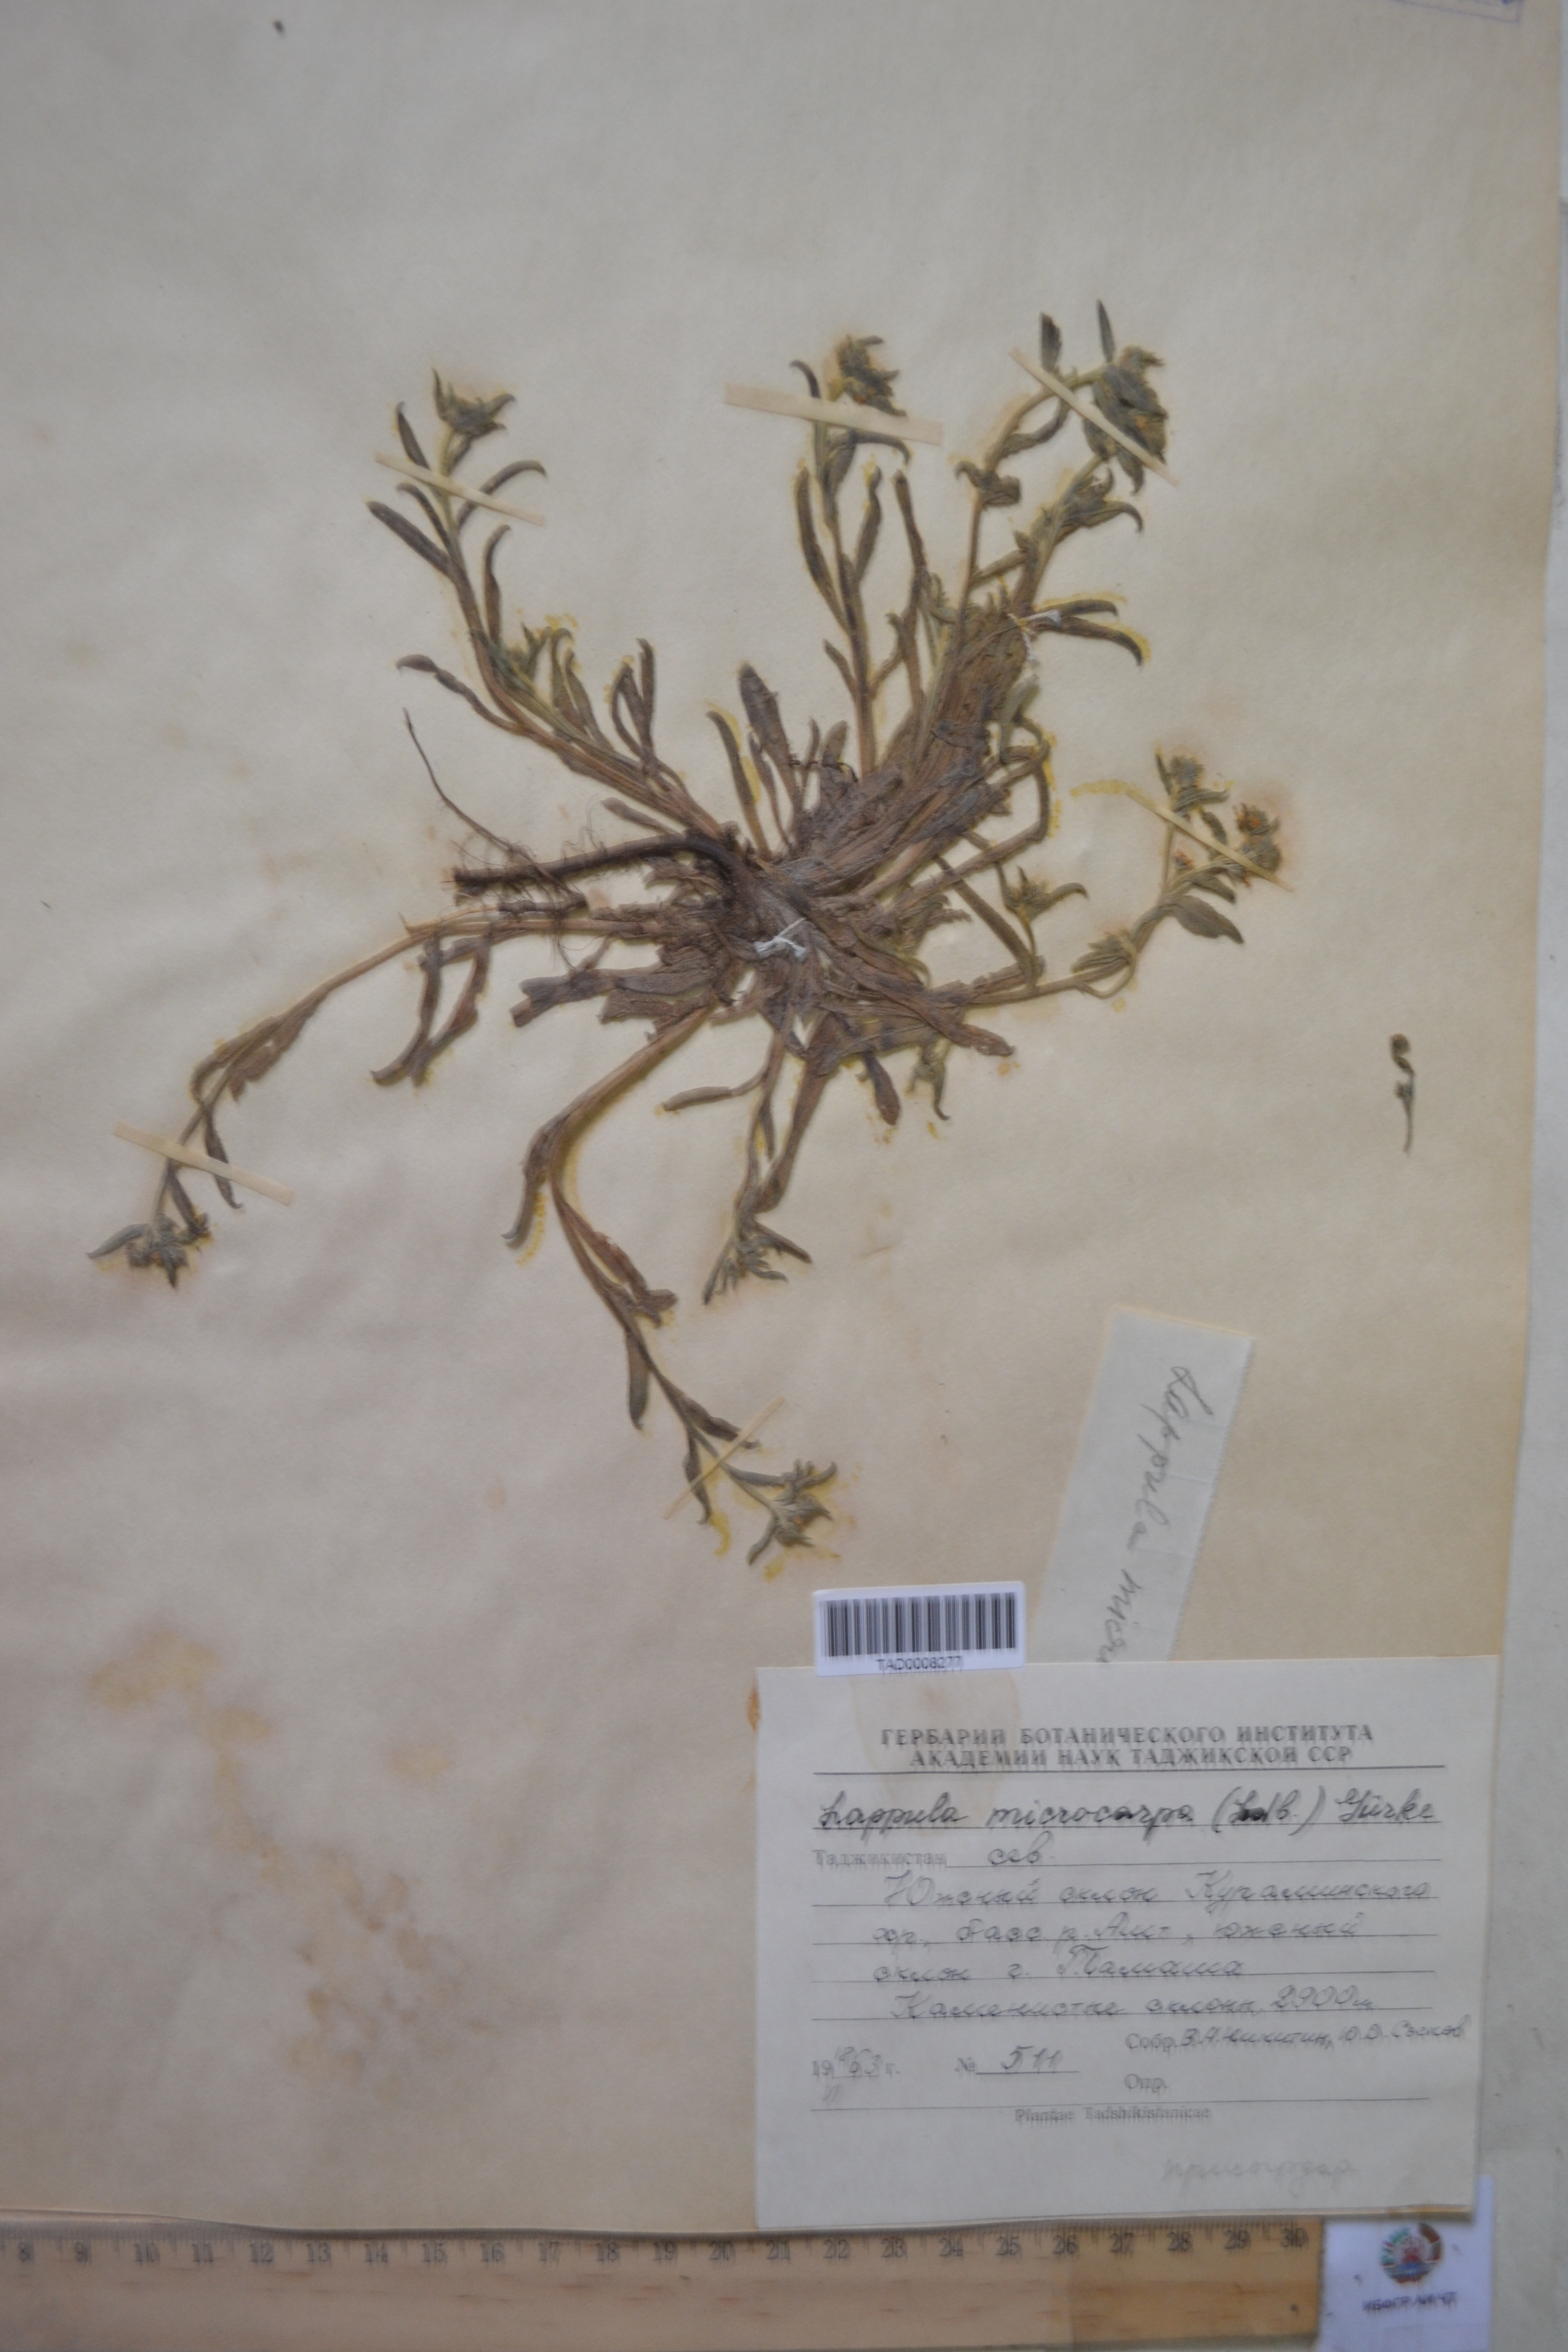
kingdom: Plantae
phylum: Tracheophyta
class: Magnoliopsida
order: Boraginales
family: Boraginaceae
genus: Lappula
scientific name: Lappula microcarpa
